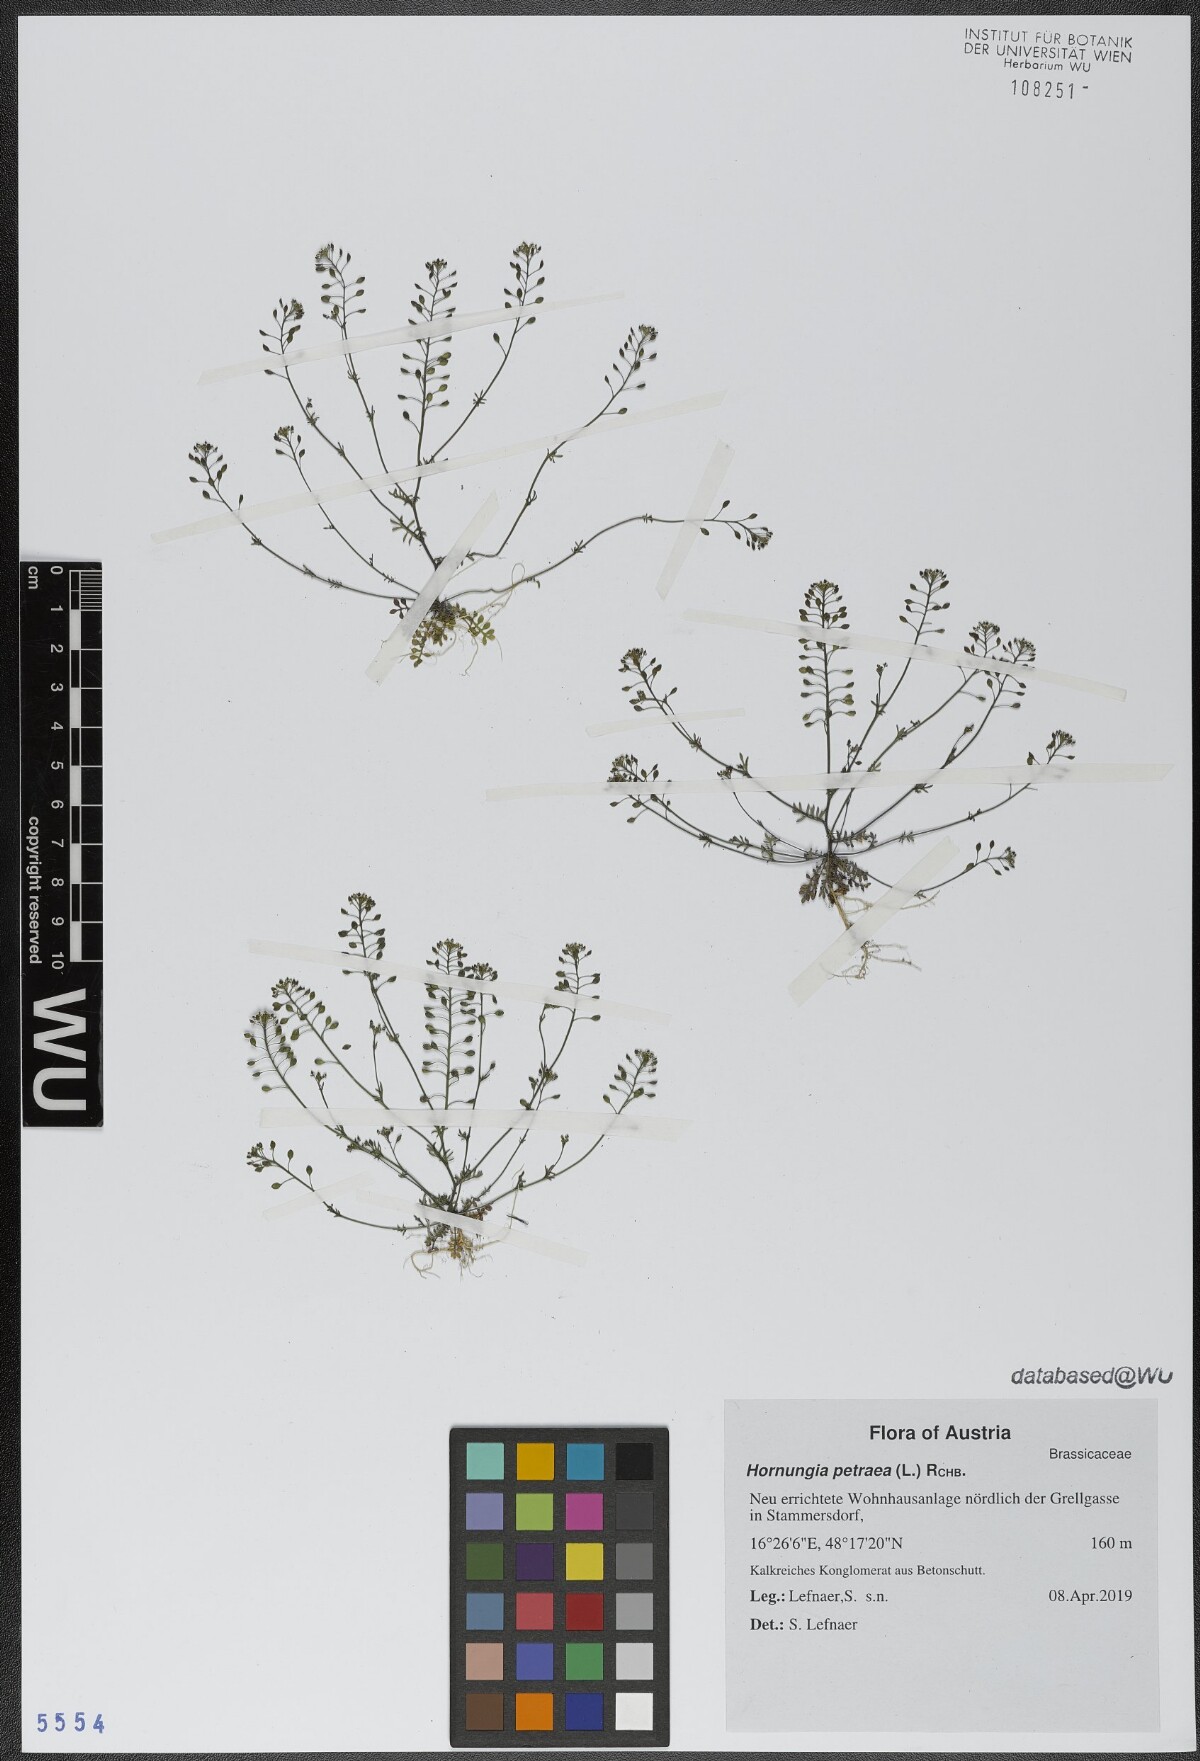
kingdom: Plantae
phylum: Tracheophyta
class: Magnoliopsida
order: Brassicales
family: Brassicaceae
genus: Hornungia
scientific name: Hornungia petraea
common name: Hutchinsia
